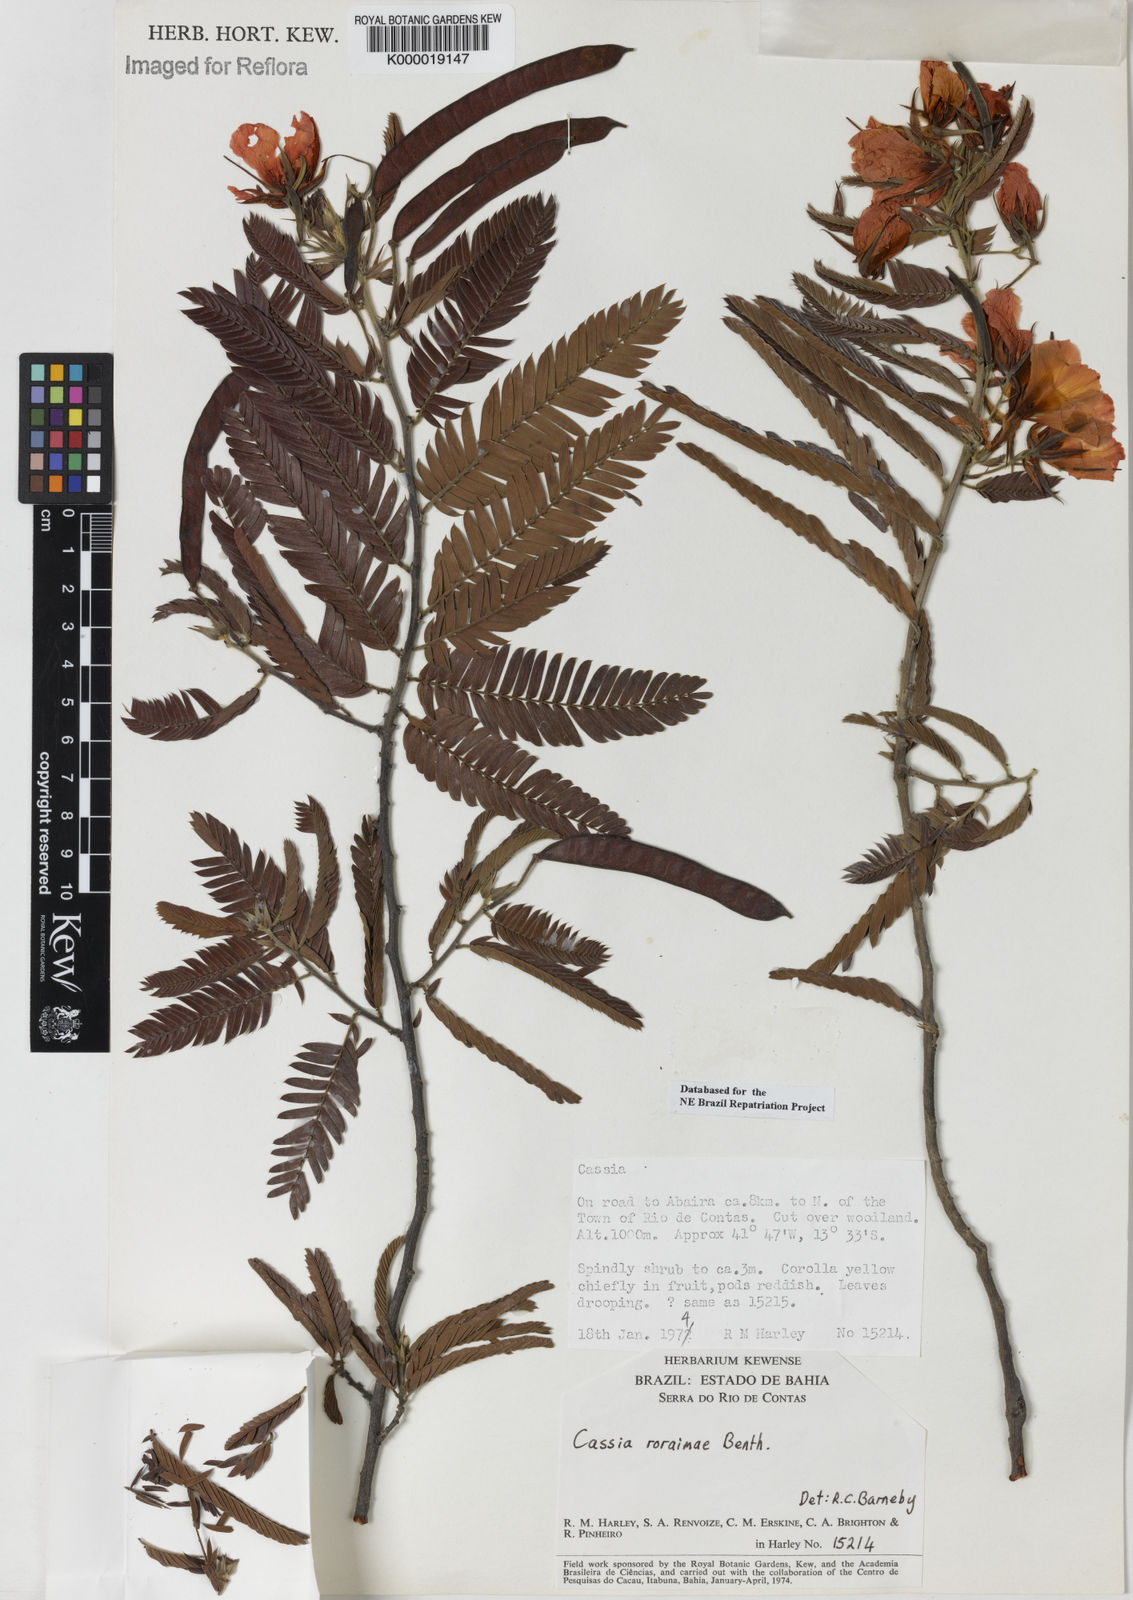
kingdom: Plantae
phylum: Tracheophyta
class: Magnoliopsida
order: Fabales
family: Fabaceae
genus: Chamaecrista
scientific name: Chamaecrista roraimae
